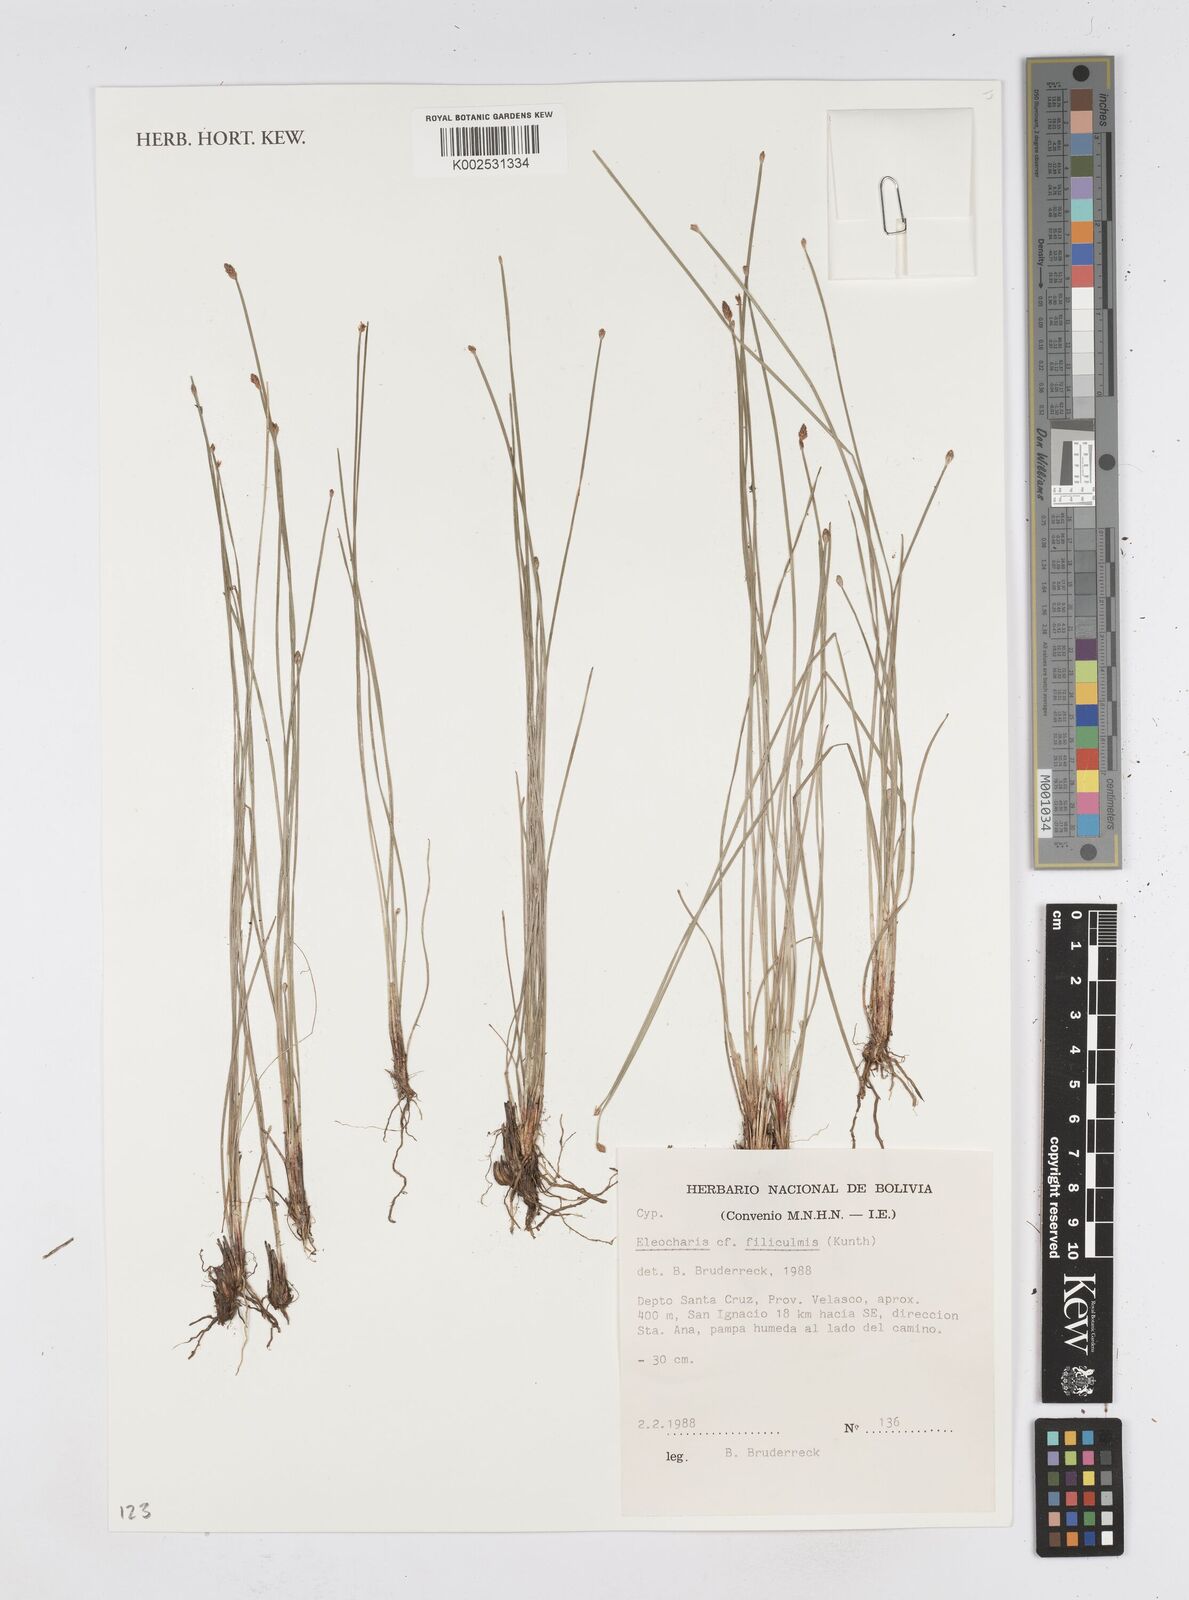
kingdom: Plantae
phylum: Tracheophyta
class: Liliopsida
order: Poales
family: Cyperaceae
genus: Eleocharis
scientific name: Eleocharis filiculmis
